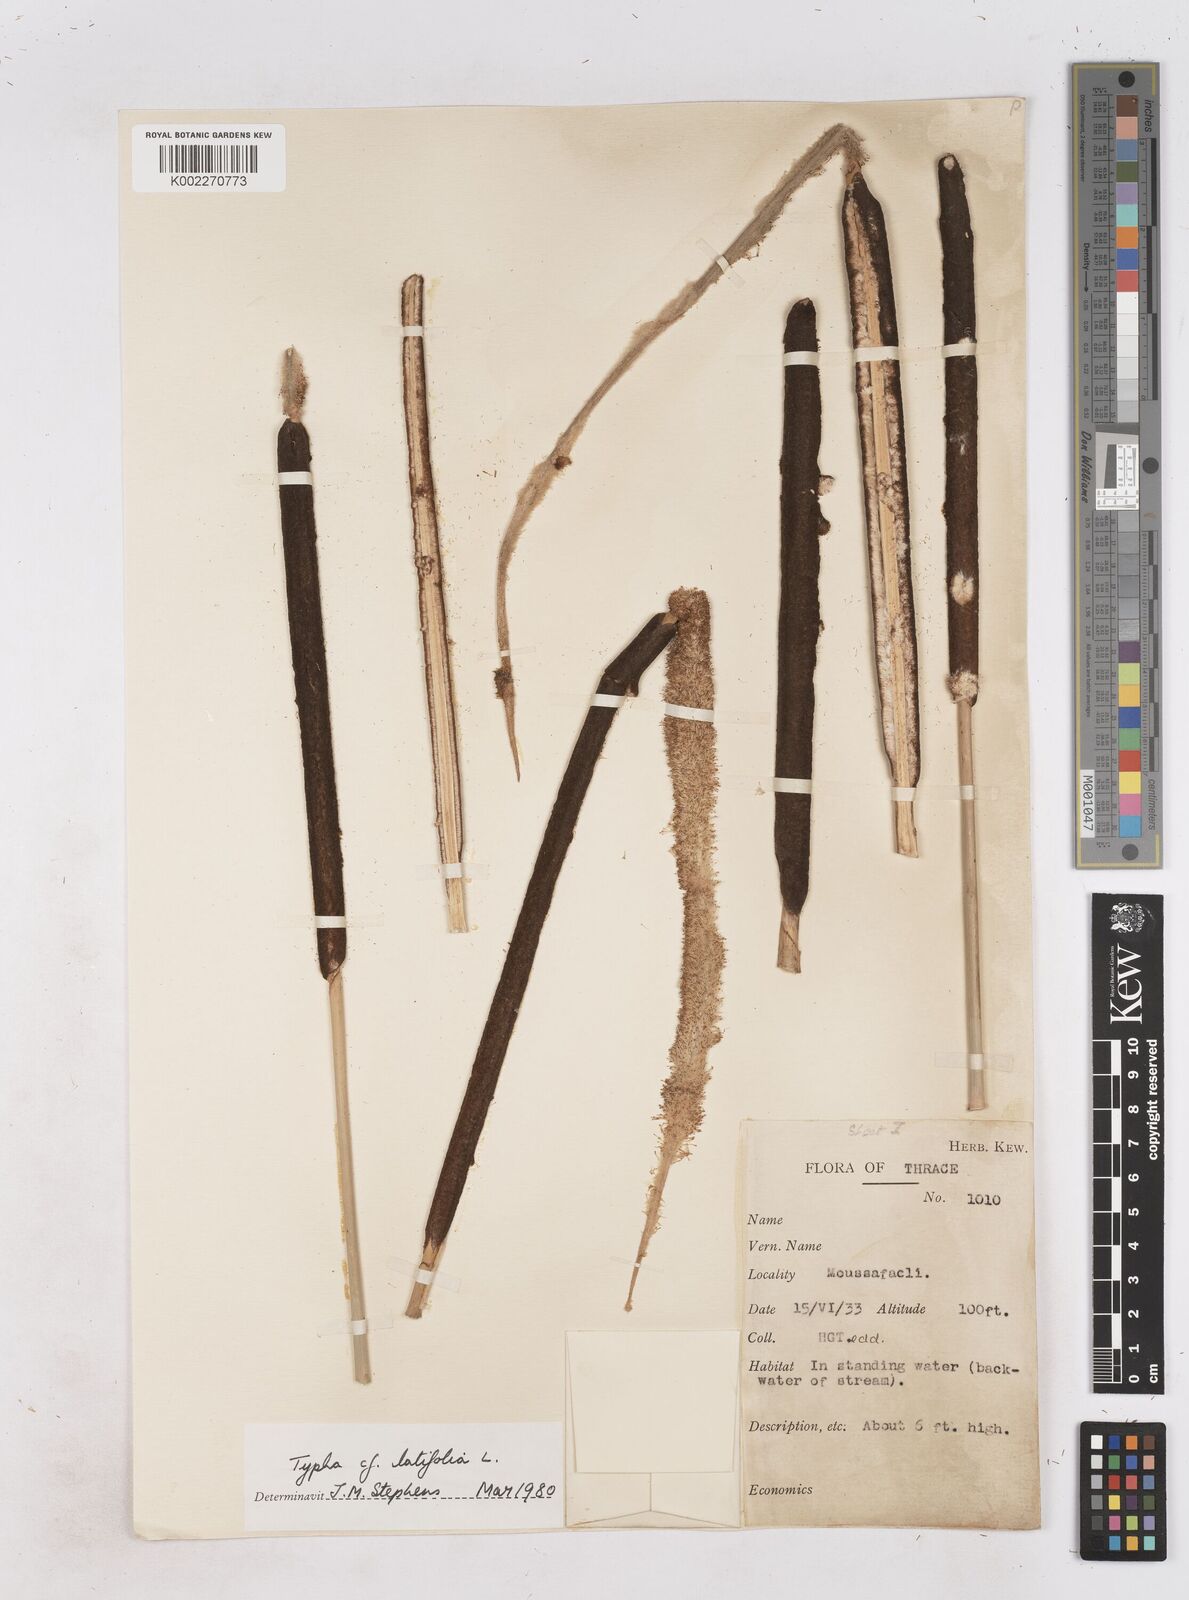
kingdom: Plantae
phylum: Tracheophyta
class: Liliopsida
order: Poales
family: Typhaceae
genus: Typha
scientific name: Typha latifolia
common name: Broadleaf cattail
